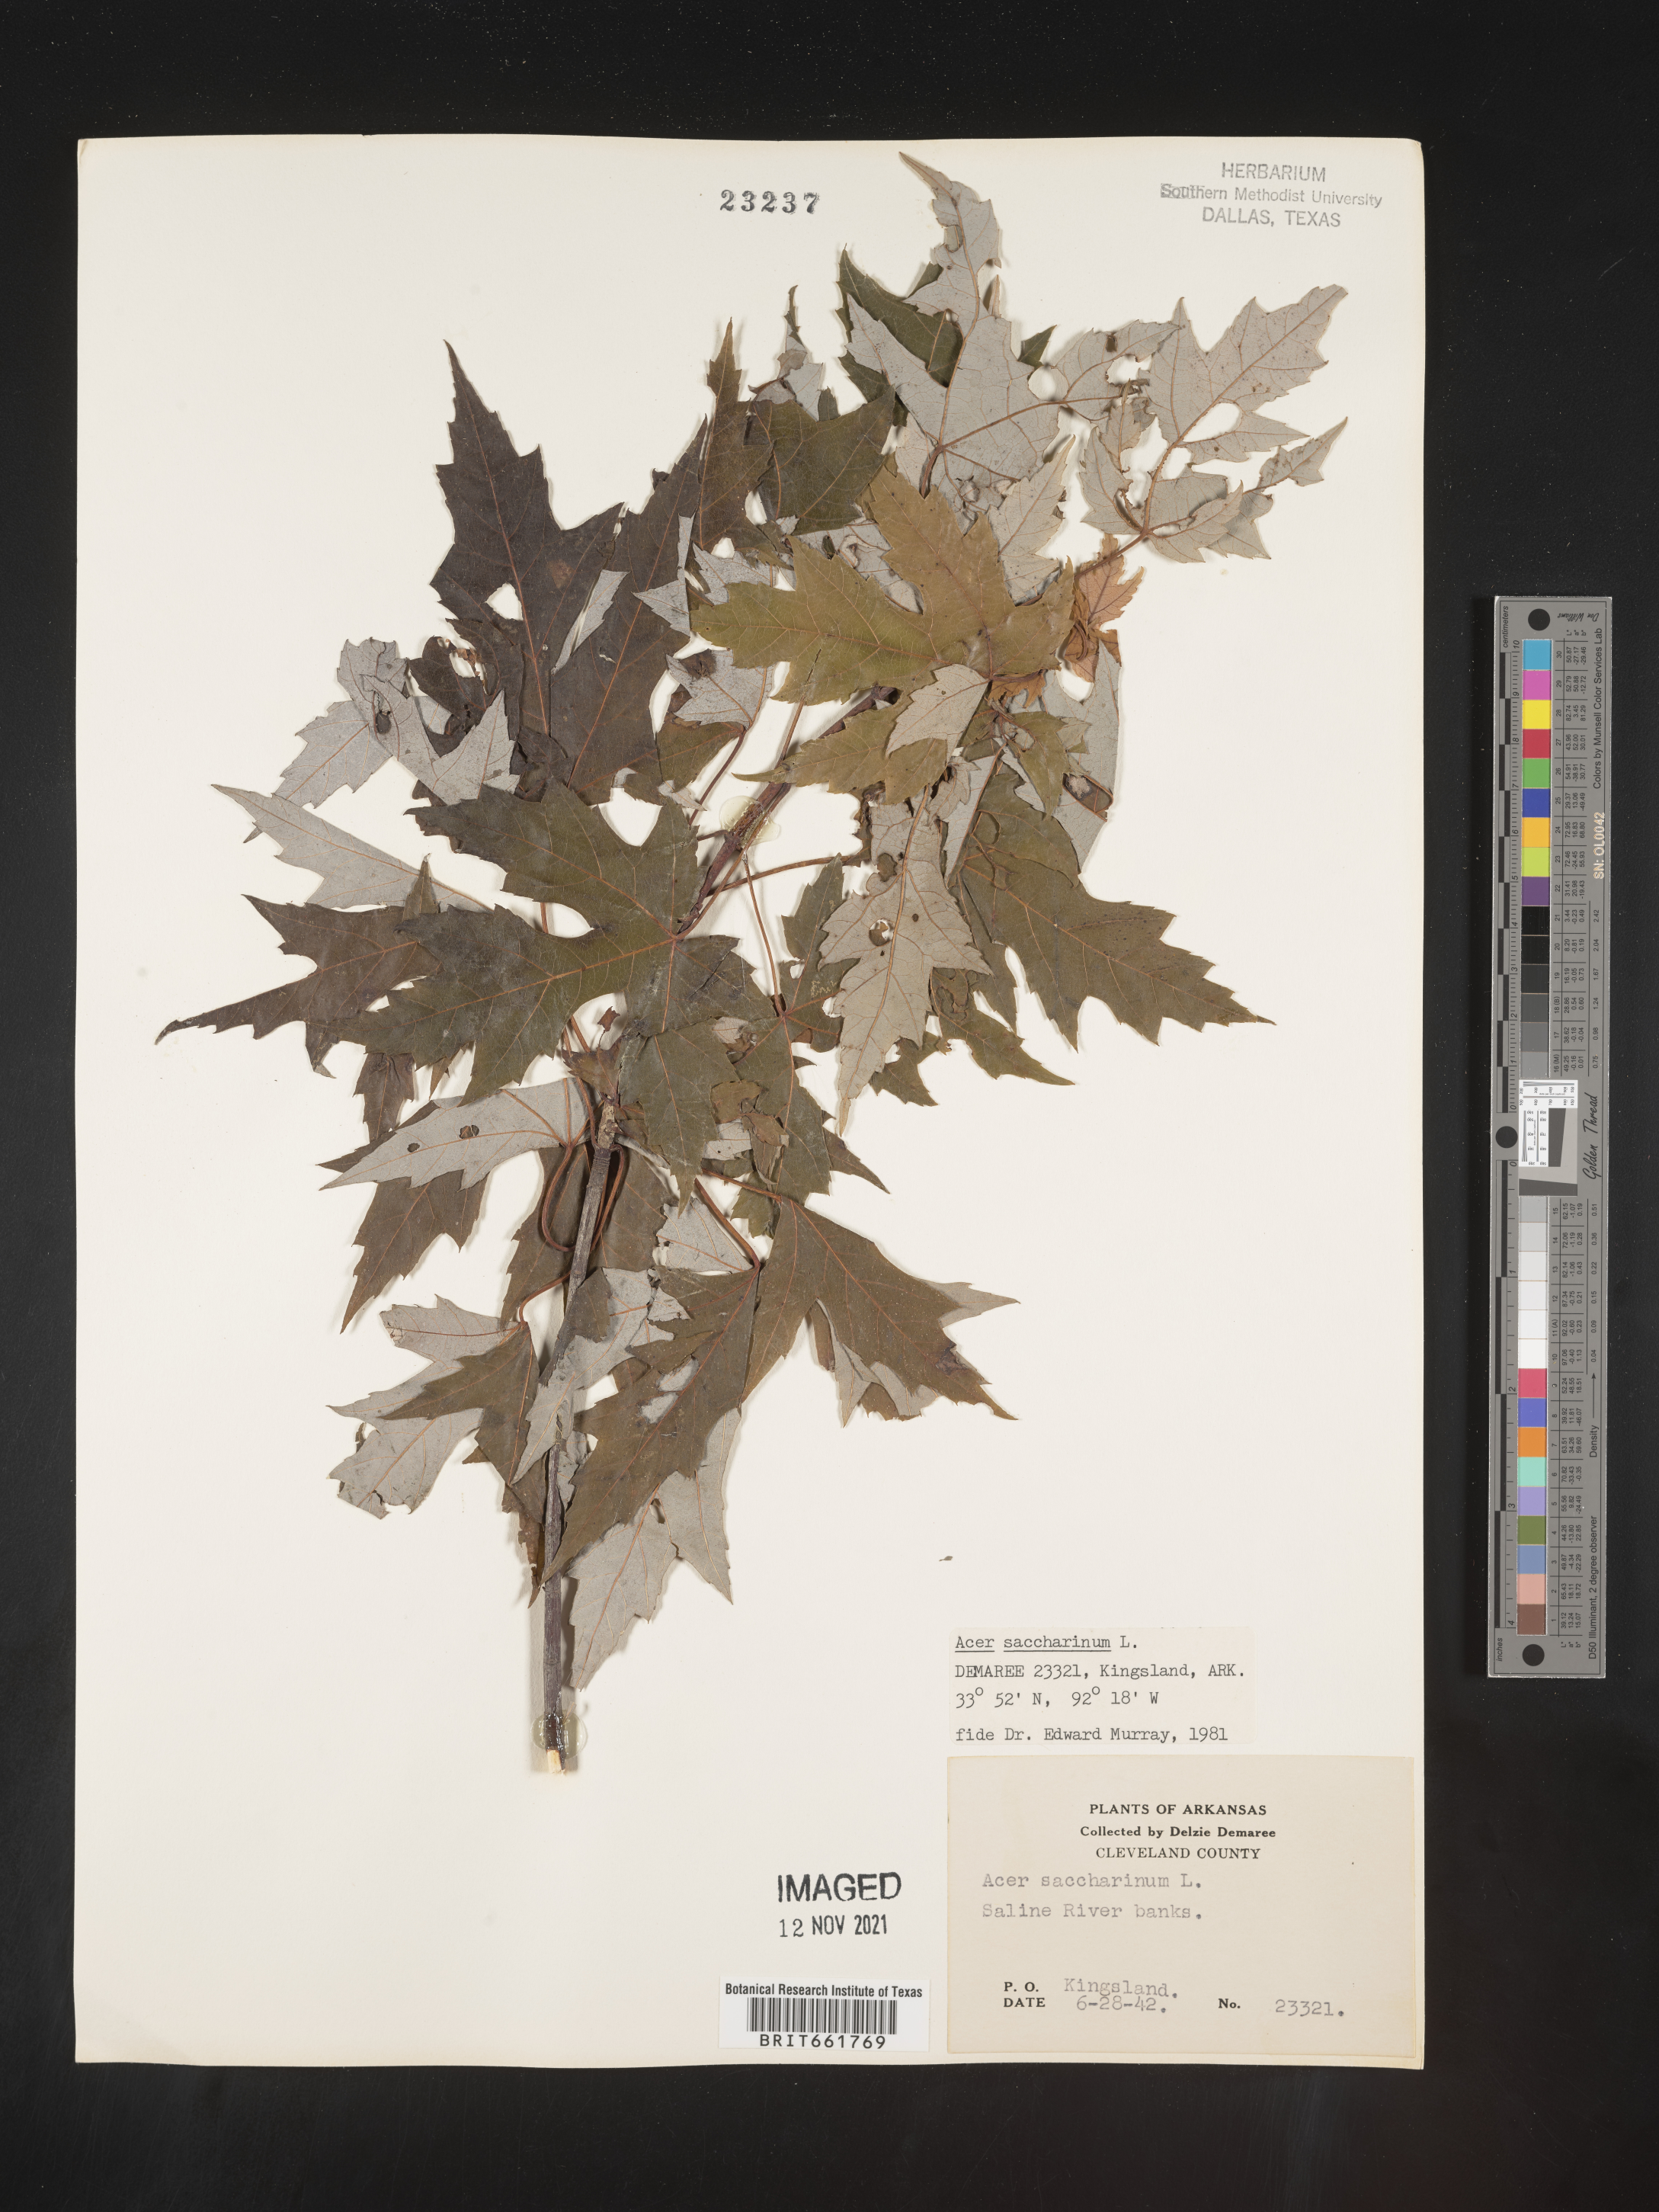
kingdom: Plantae
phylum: Tracheophyta
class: Magnoliopsida
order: Sapindales
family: Sapindaceae
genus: Acer
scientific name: Acer saccharinum
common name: Silver maple
